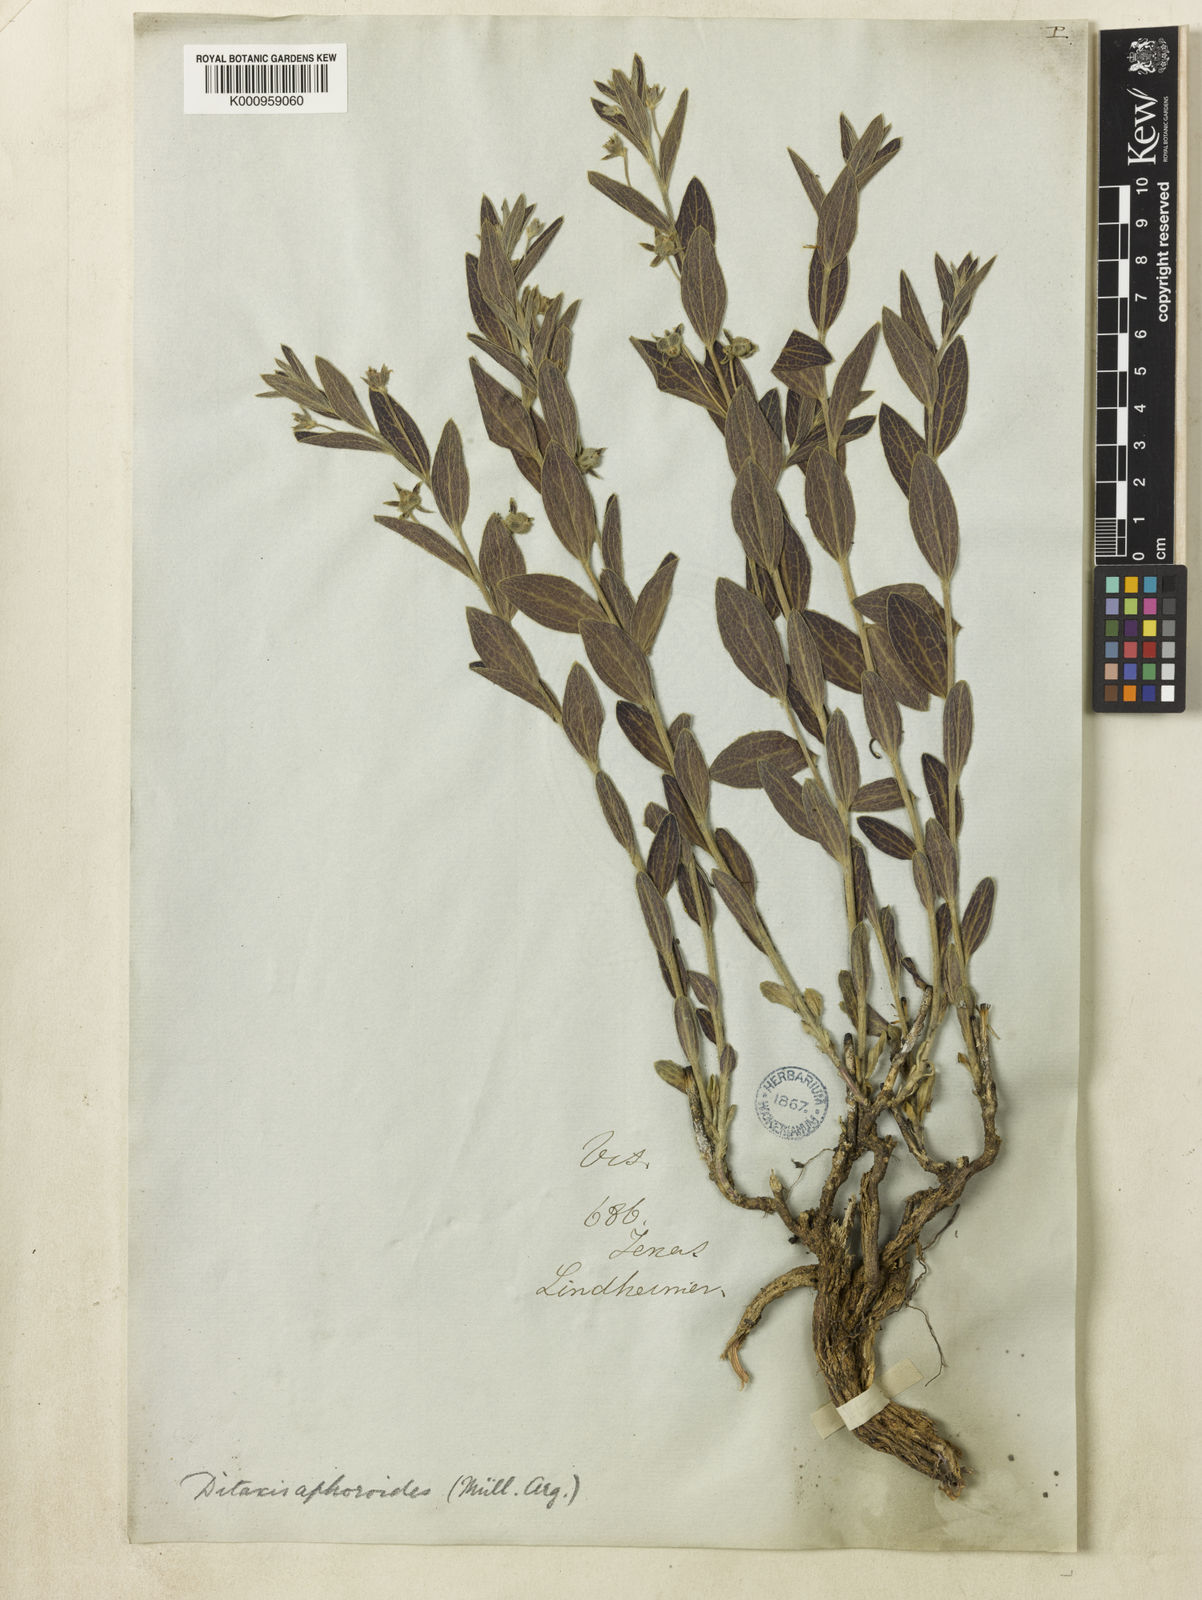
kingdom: Plantae
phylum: Tracheophyta
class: Magnoliopsida
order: Malpighiales
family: Euphorbiaceae
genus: Ditaxis
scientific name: Ditaxis
